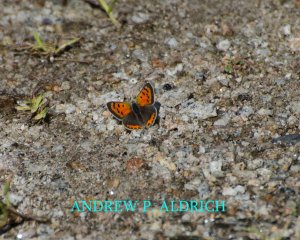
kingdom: Animalia
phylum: Arthropoda
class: Insecta
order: Lepidoptera
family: Lycaenidae
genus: Lycaena
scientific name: Lycaena phlaeas
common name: American Copper
